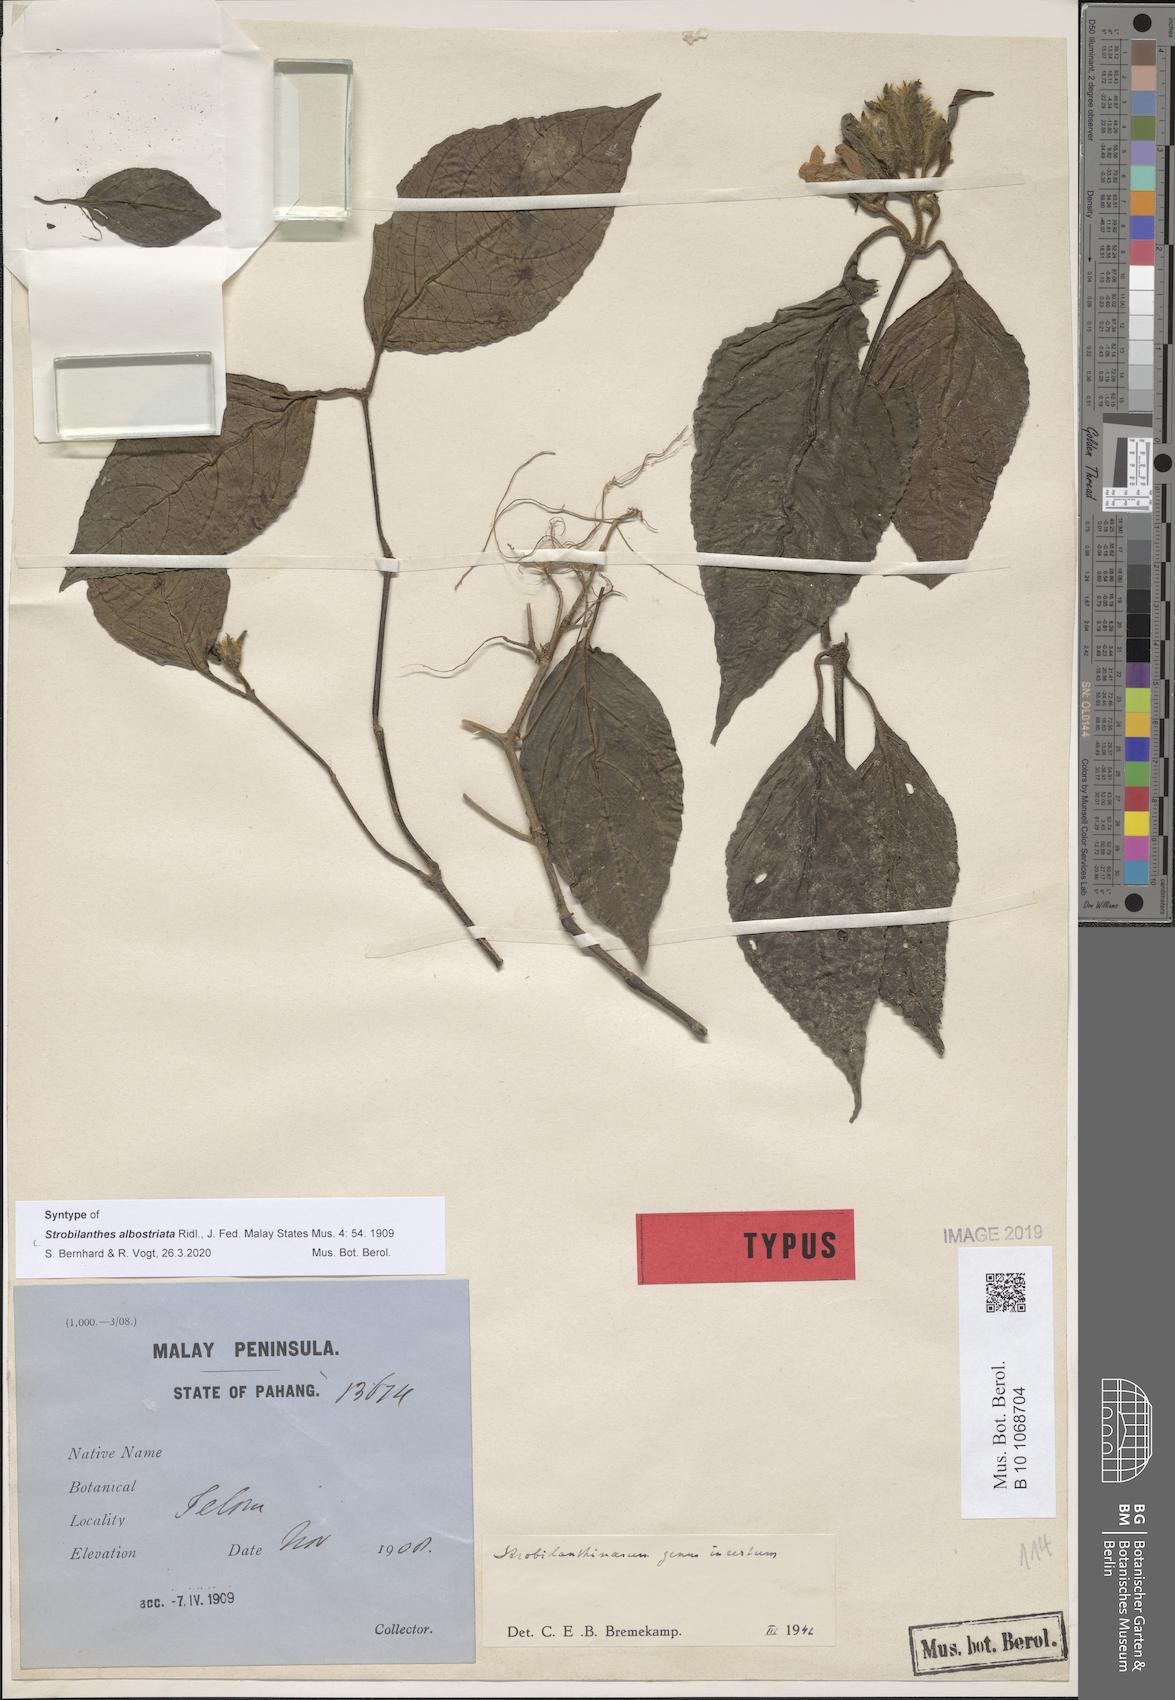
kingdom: Plantae
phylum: Tracheophyta
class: Magnoliopsida
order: Lamiales
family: Acanthaceae
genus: Strobilanthes
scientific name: Strobilanthes albostriata
